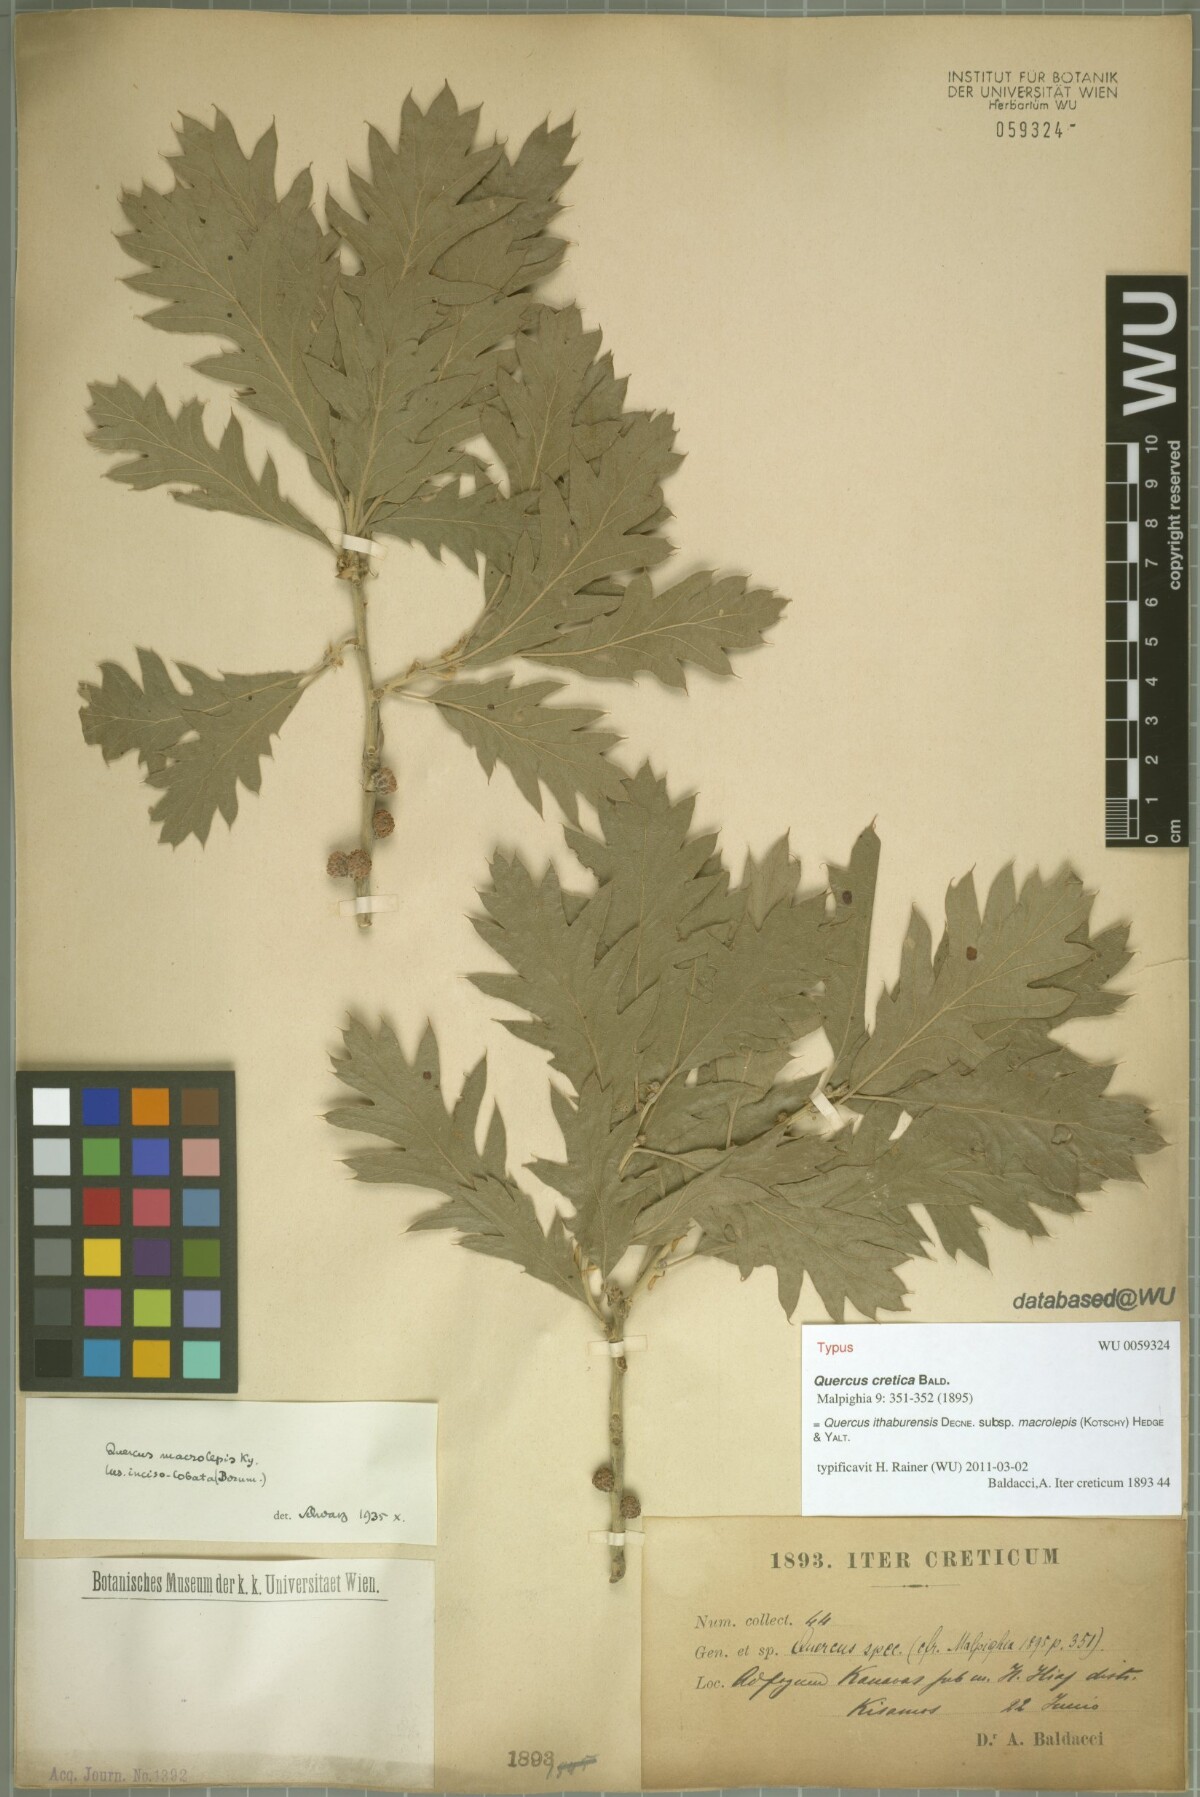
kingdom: Plantae
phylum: Tracheophyta
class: Magnoliopsida
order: Fagales
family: Fagaceae
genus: Quercus
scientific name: Quercus ithaburensis
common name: Tabor oak
